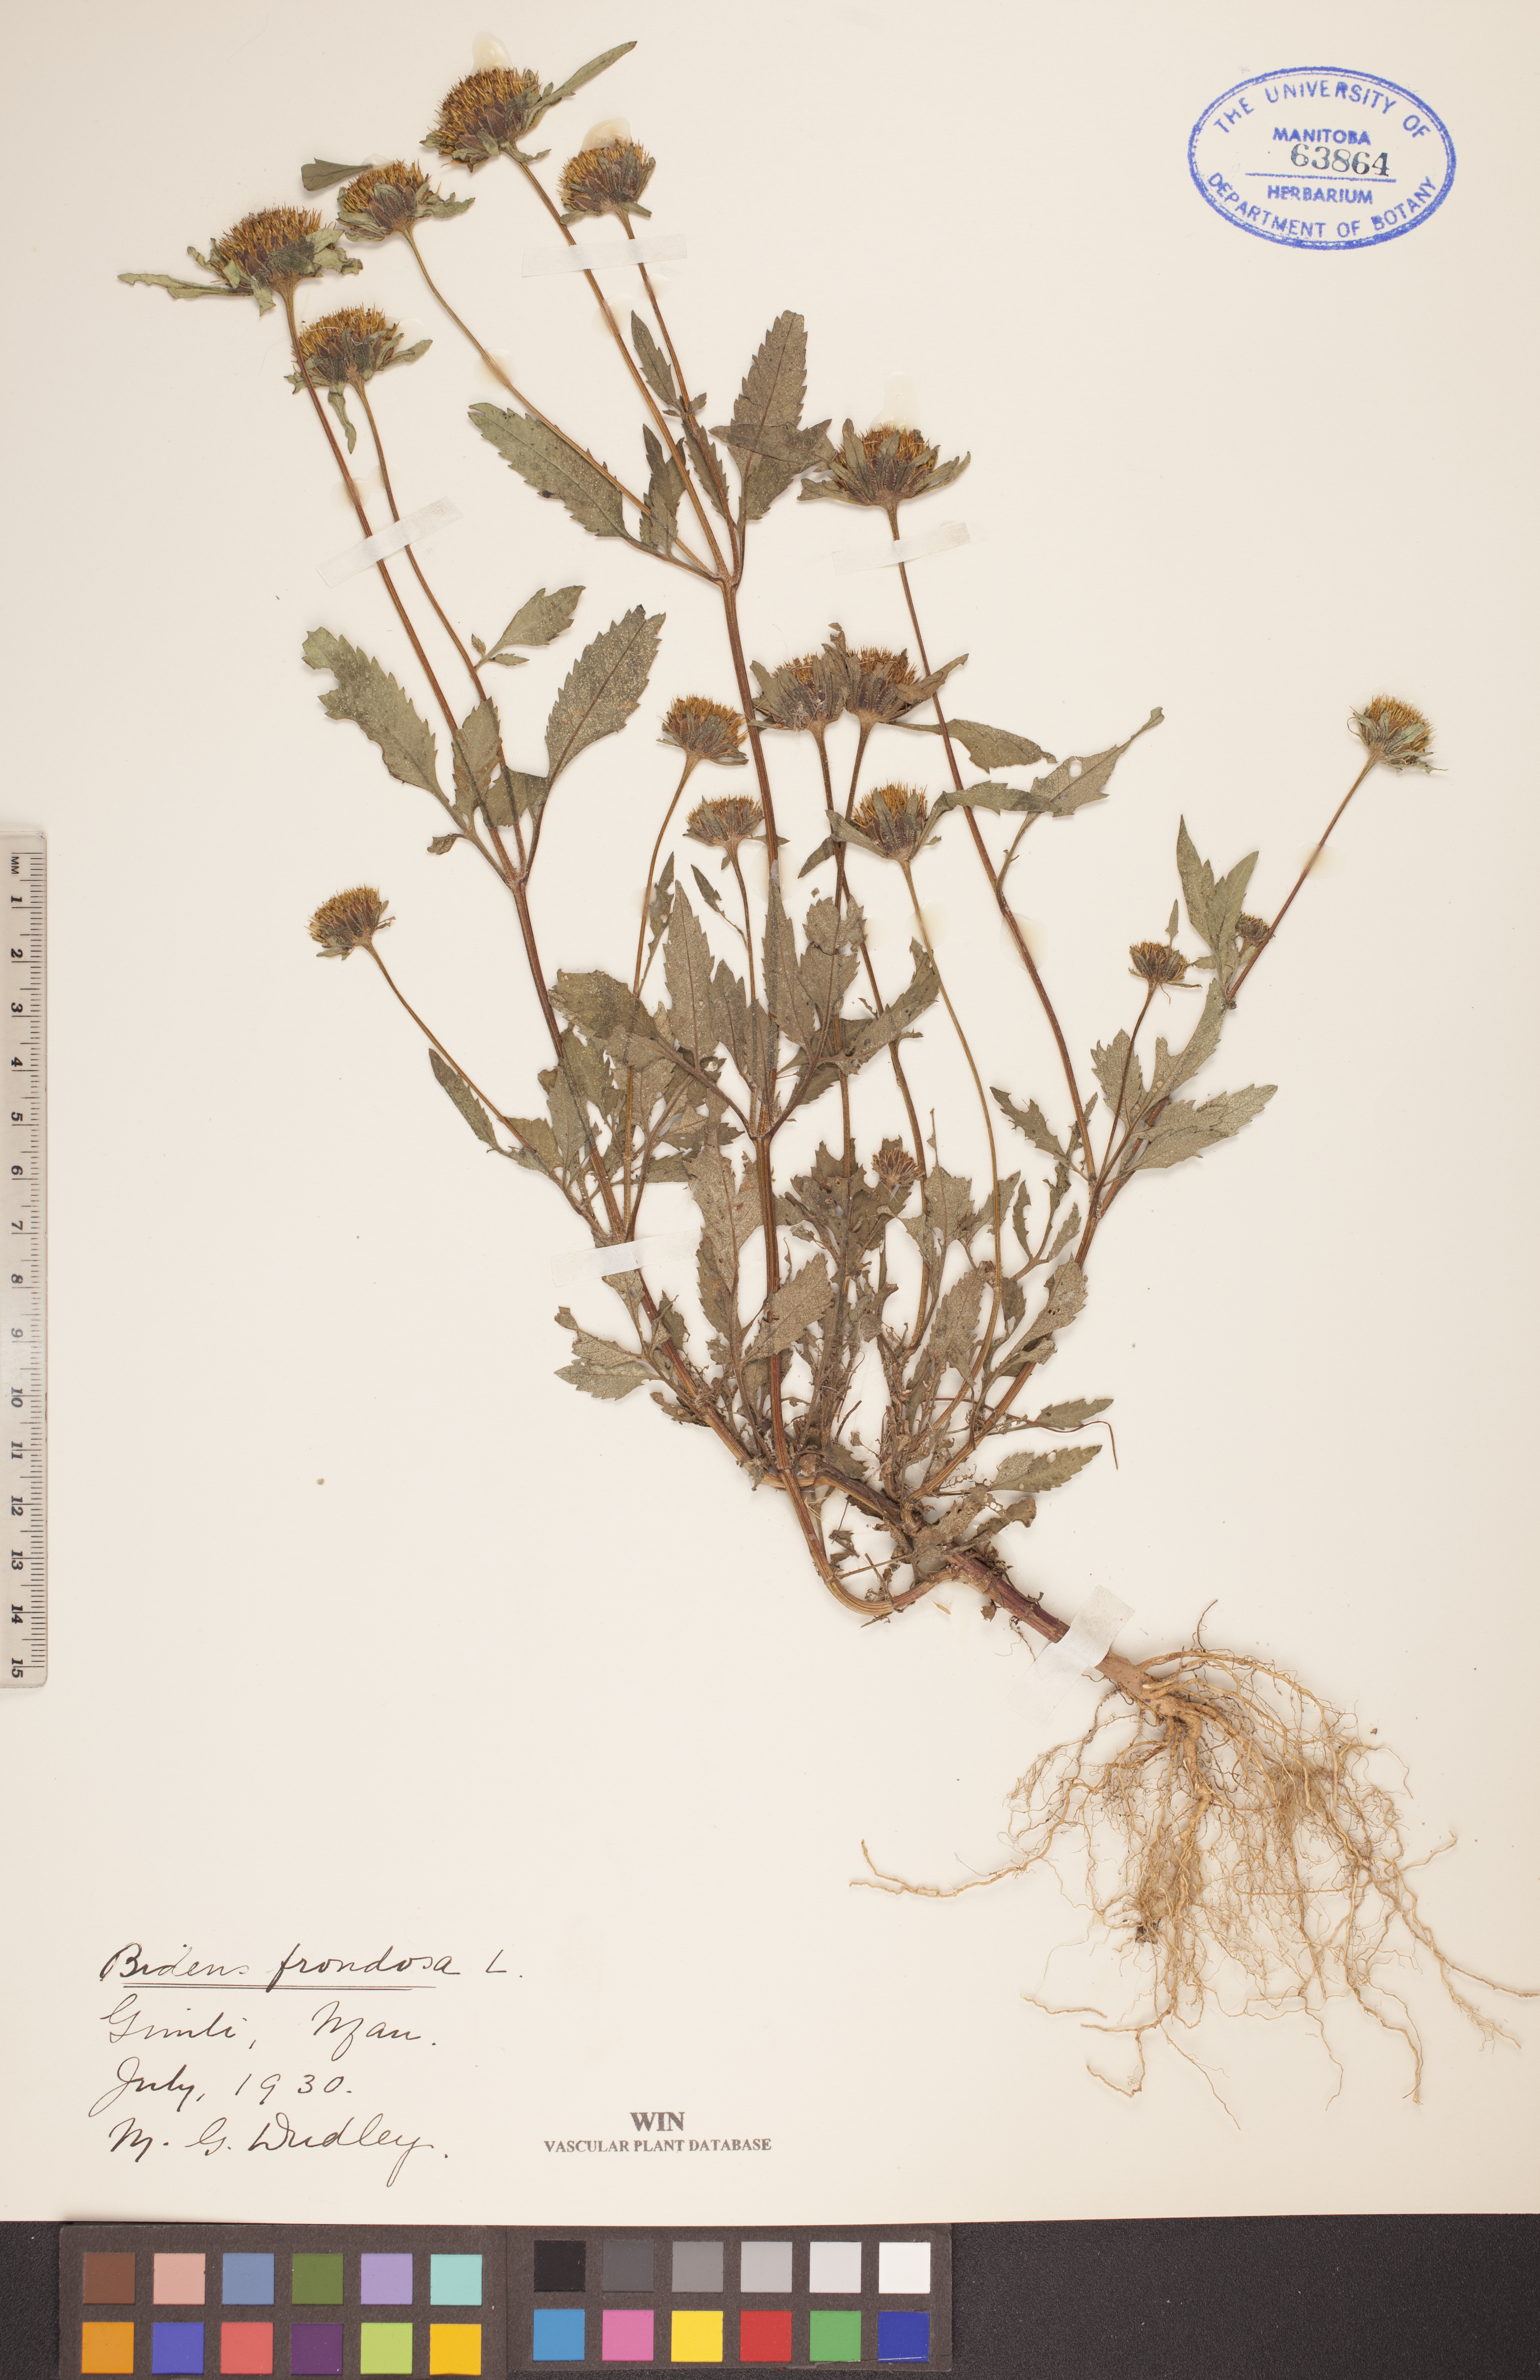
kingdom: Plantae
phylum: Tracheophyta
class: Magnoliopsida
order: Asterales
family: Asteraceae
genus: Bidens
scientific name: Bidens frondosa
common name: Beggarticks
